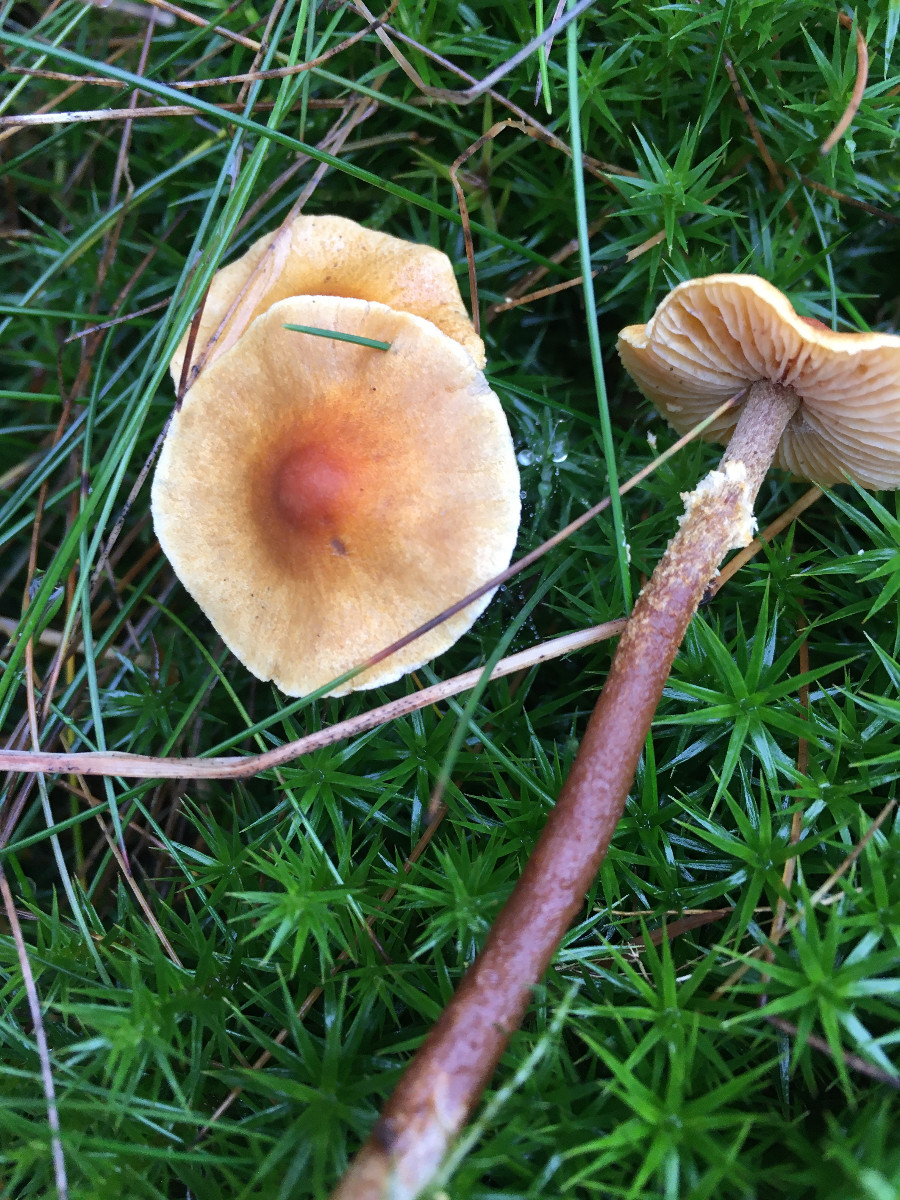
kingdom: Fungi
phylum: Basidiomycota
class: Agaricomycetes
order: Agaricales
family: Tricholomataceae
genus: Cystoderma
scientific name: Cystoderma jasonis
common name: gulkødet grynhat
